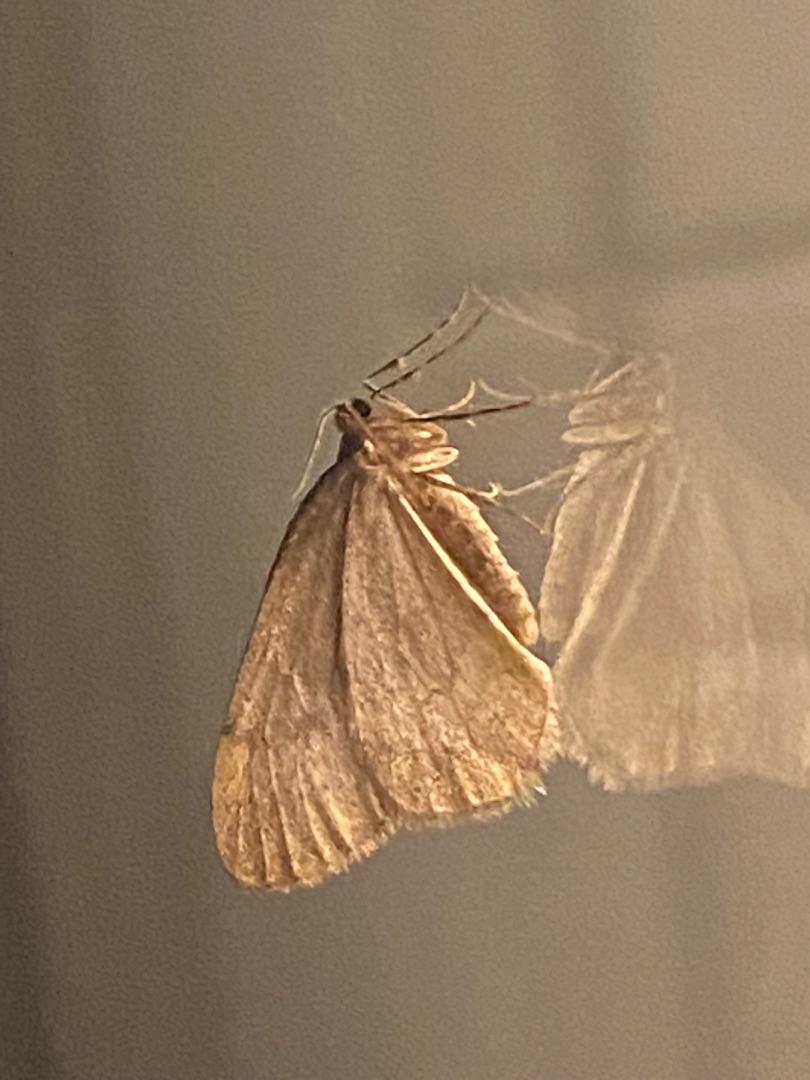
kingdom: Animalia
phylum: Arthropoda
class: Insecta
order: Lepidoptera
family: Geometridae
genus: Operophtera
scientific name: Operophtera brumata
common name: Lille frostmåler
